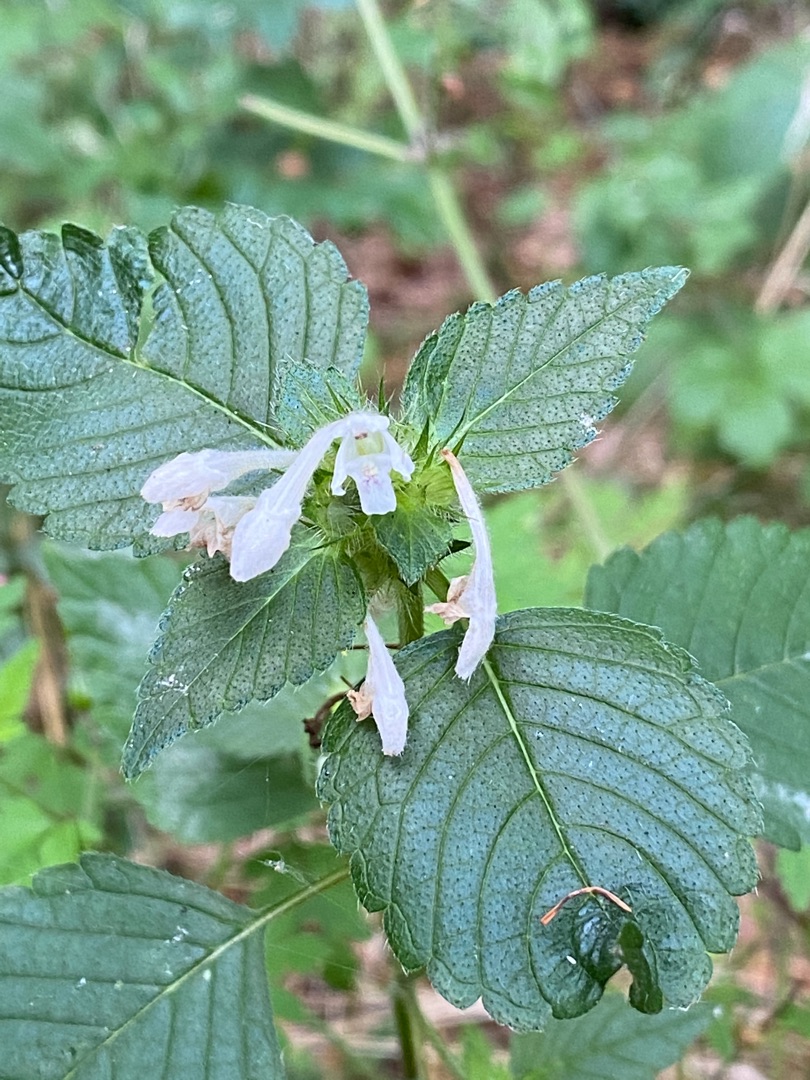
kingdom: Plantae
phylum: Tracheophyta
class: Magnoliopsida
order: Lamiales
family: Lamiaceae
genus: Galeopsis
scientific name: Galeopsis tetrahit
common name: Almindelig hanekro
